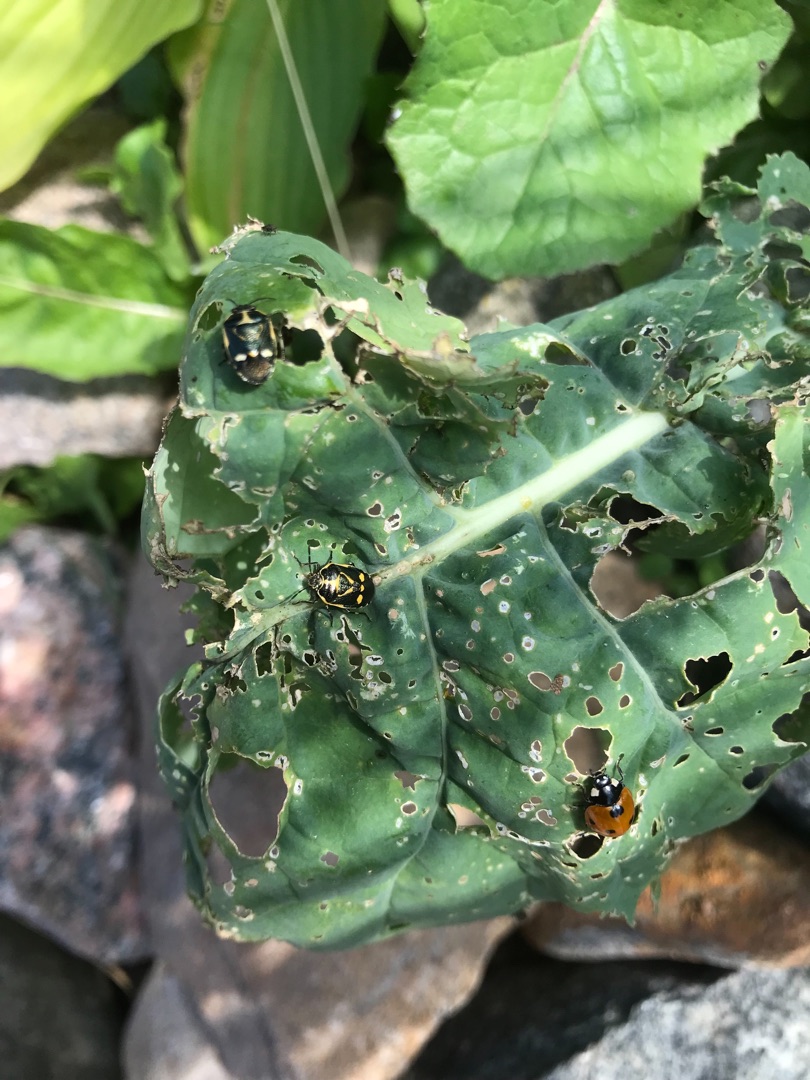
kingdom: Animalia
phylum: Arthropoda
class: Insecta
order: Hemiptera
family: Pentatomidae
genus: Eurydema
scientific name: Eurydema oleracea
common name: Almindelig kåltæge
